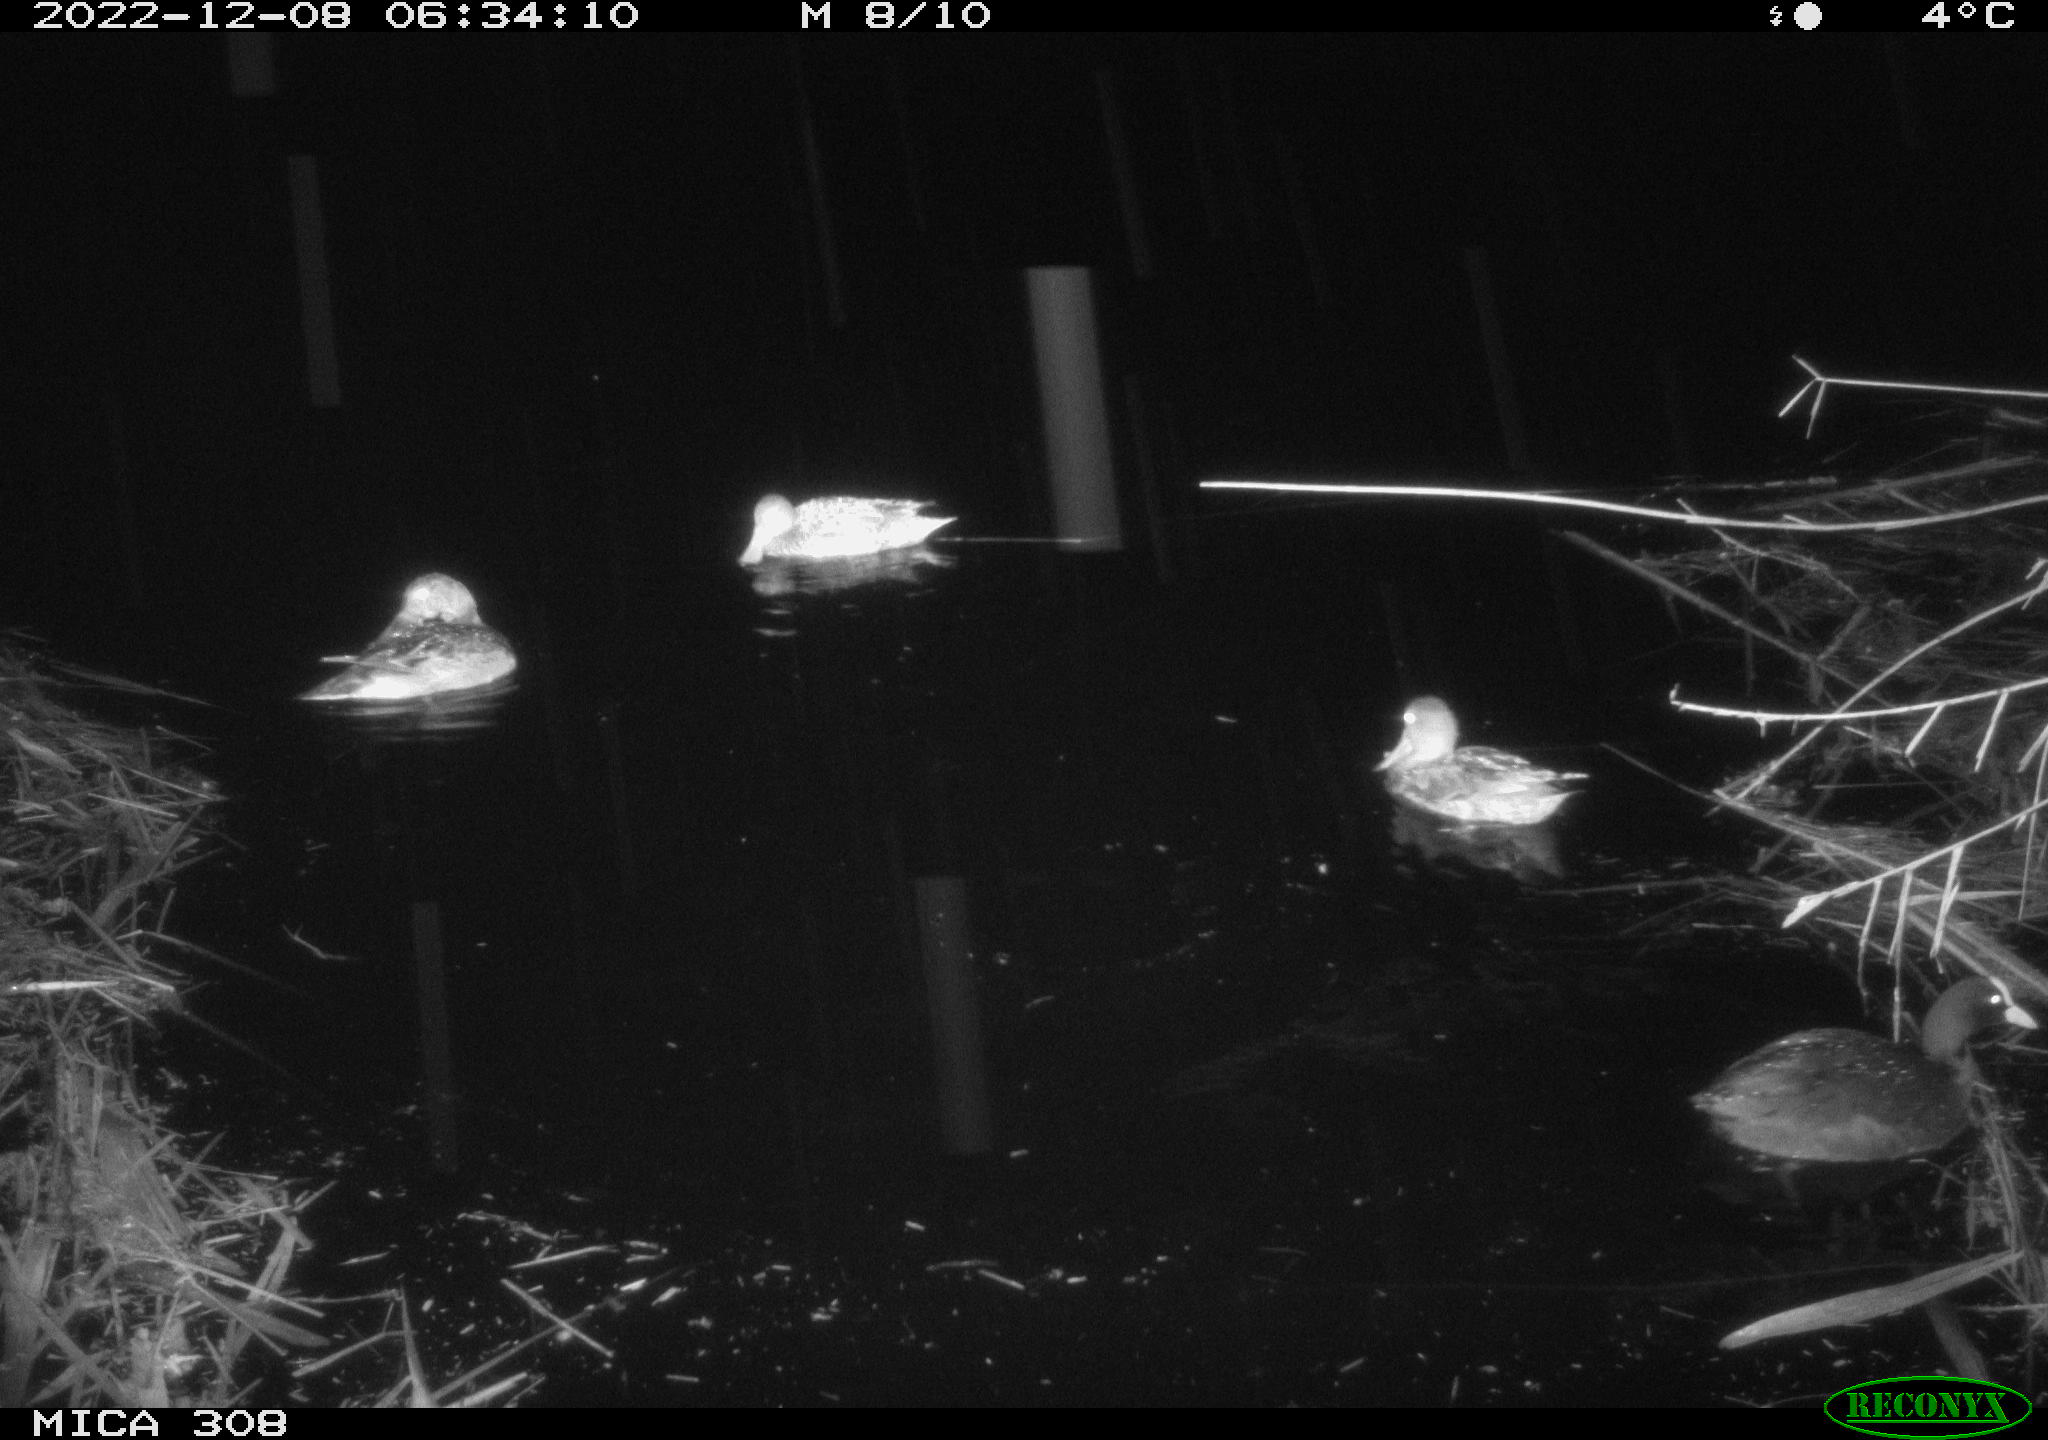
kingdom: Animalia
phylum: Chordata
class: Aves
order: Anseriformes
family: Anatidae
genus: Anas
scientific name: Anas
